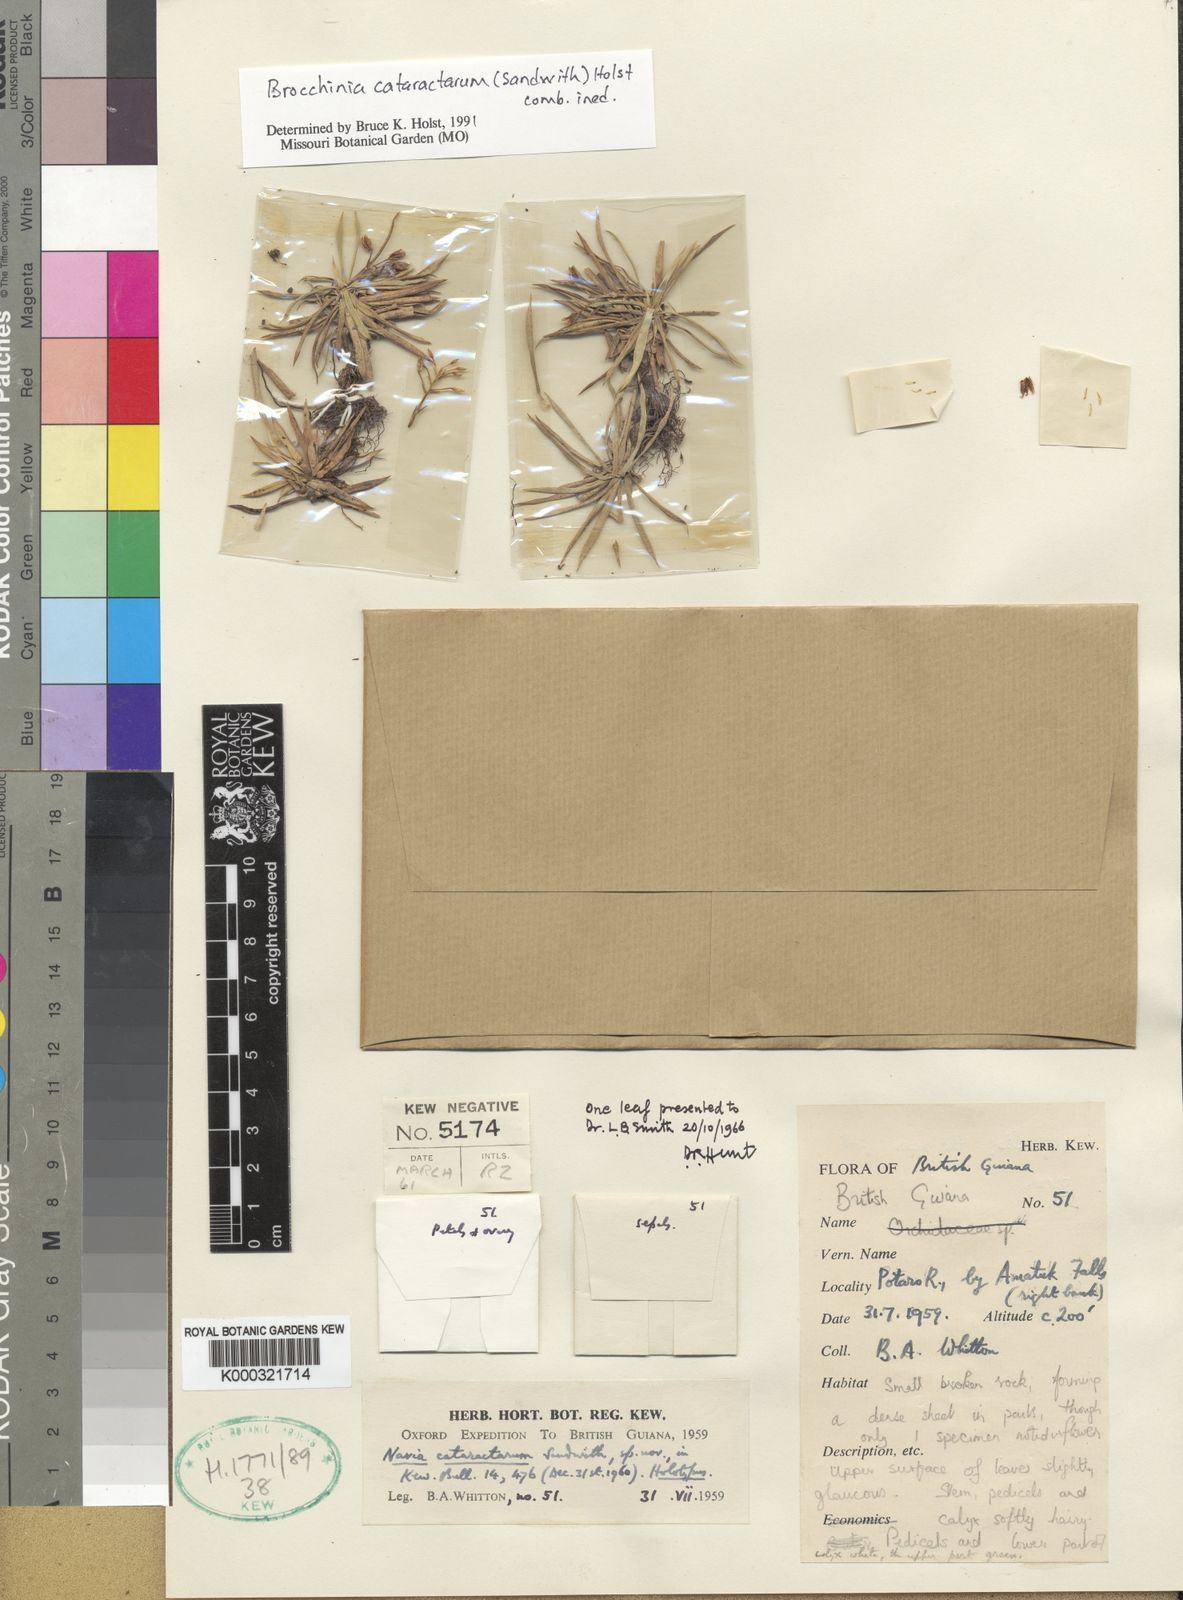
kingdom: Plantae
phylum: Tracheophyta
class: Liliopsida
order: Poales
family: Bromeliaceae
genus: Brocchinia
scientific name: Brocchinia cataractarum
